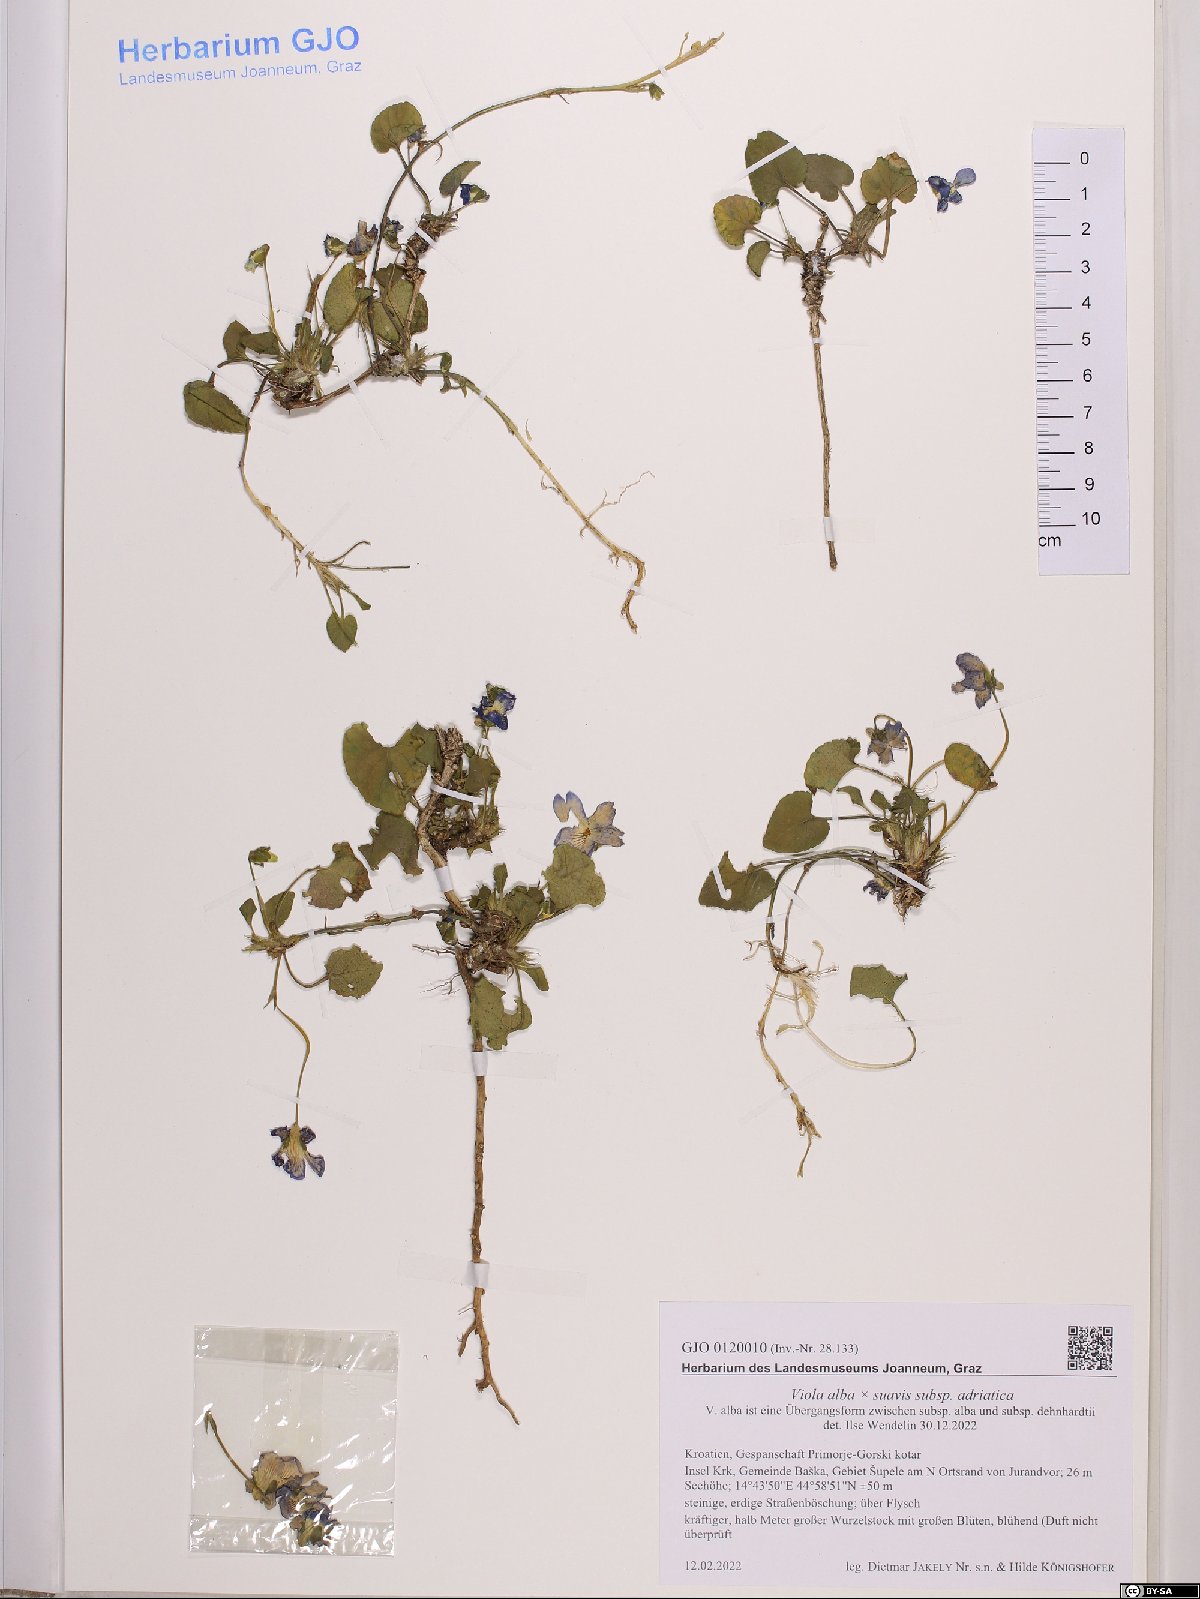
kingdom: Plantae
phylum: Tracheophyta
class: Magnoliopsida
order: Malpighiales
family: Violaceae
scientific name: Violaceae
